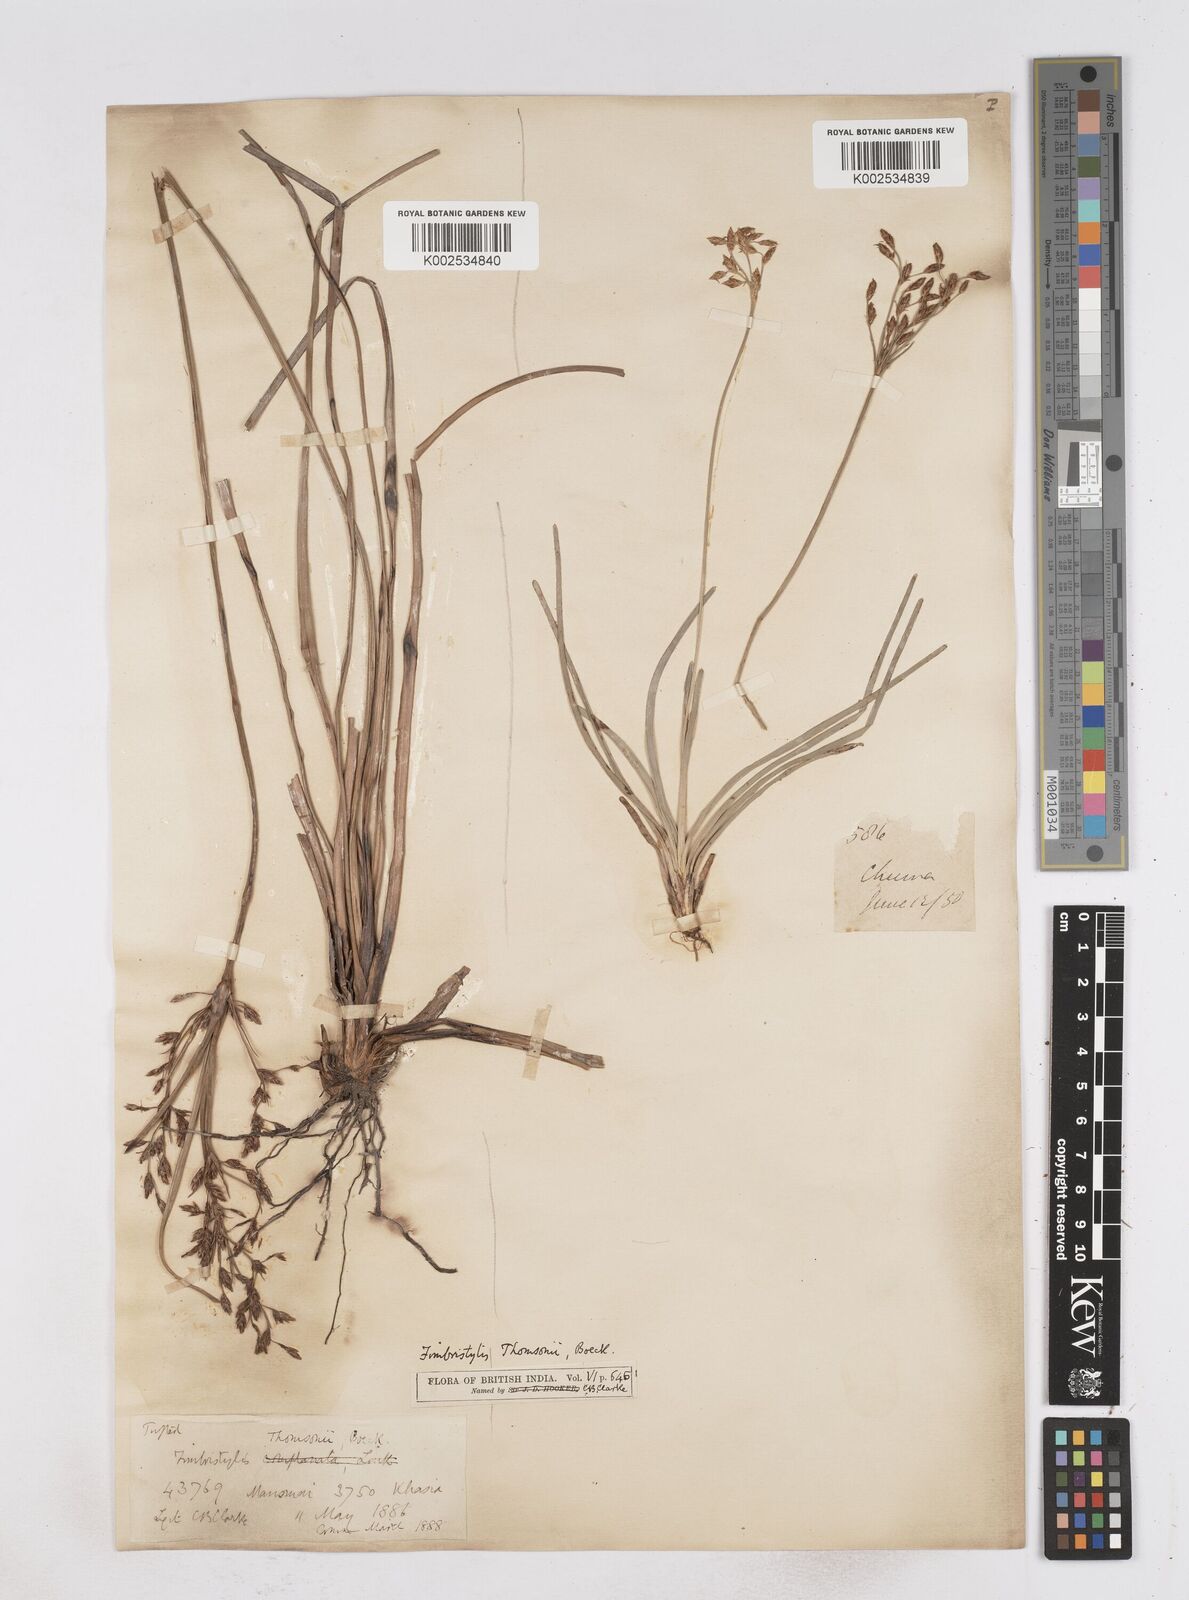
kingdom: Plantae
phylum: Tracheophyta
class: Liliopsida
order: Poales
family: Cyperaceae
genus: Fimbristylis
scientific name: Fimbristylis thomsonii
